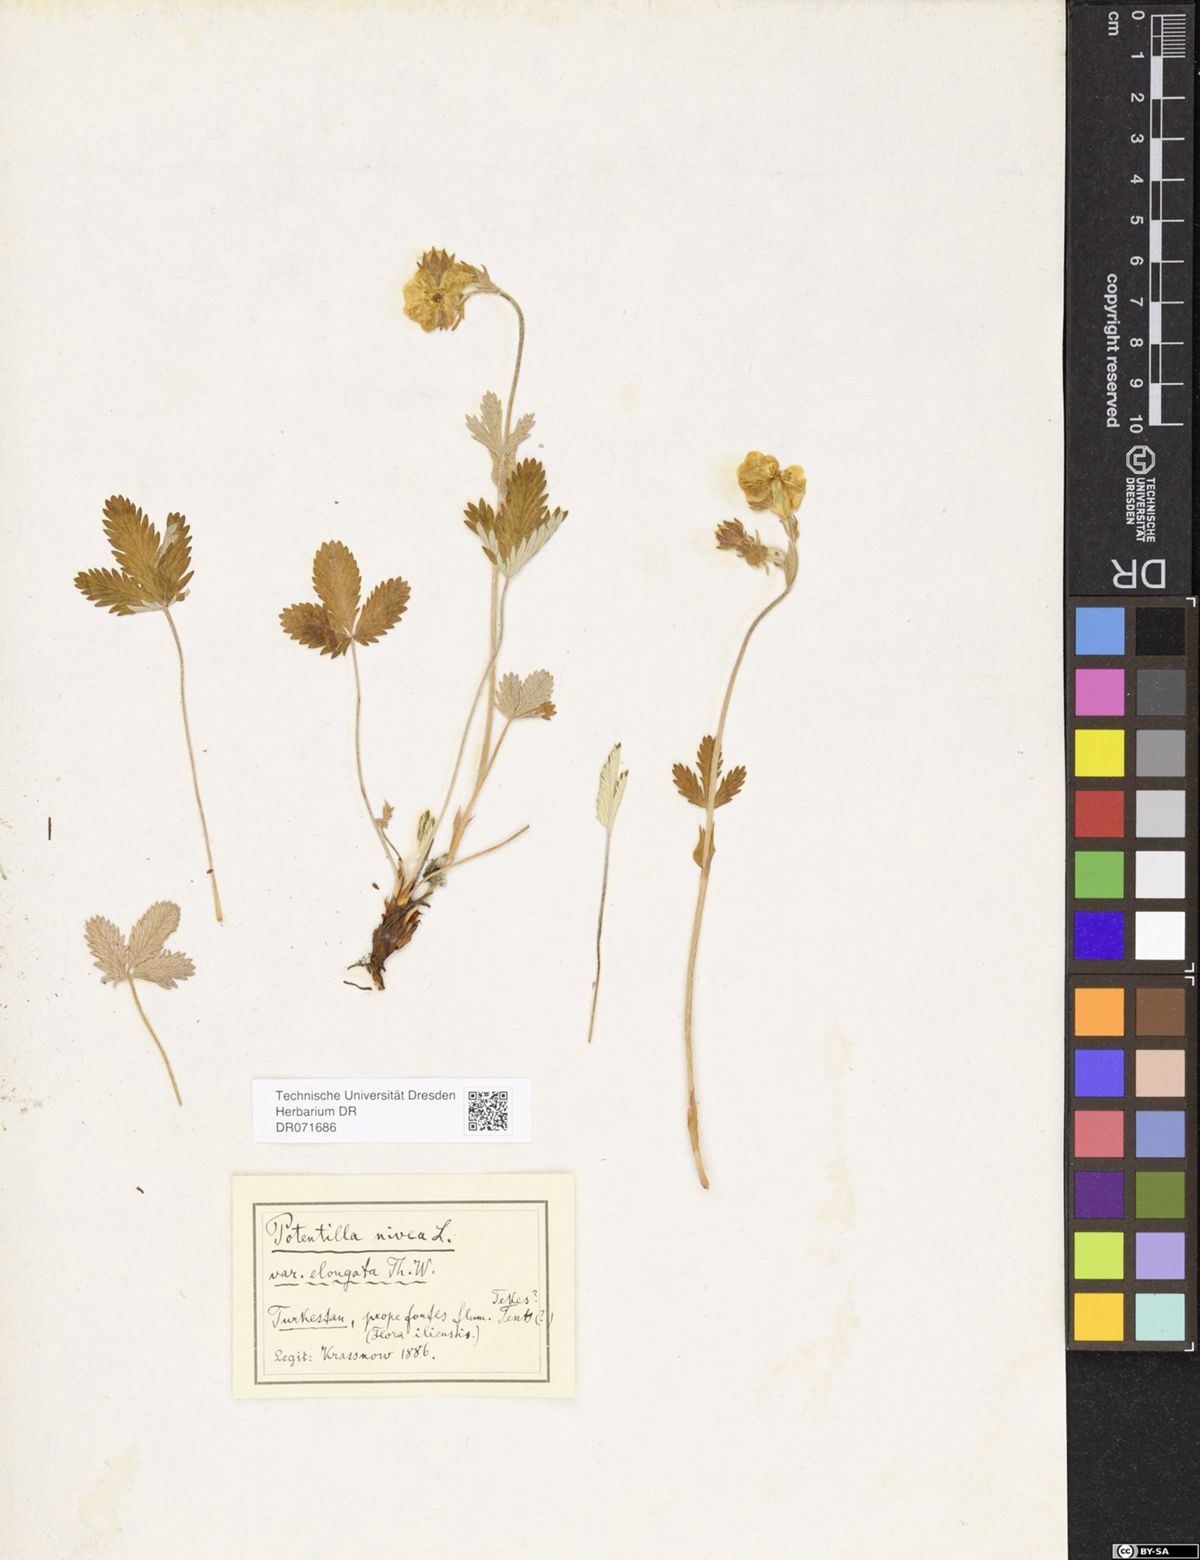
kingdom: Plantae
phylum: Tracheophyta
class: Magnoliopsida
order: Rosales
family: Rosaceae
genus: Potentilla
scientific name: Potentilla crebridens
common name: Congested cinquefoil
